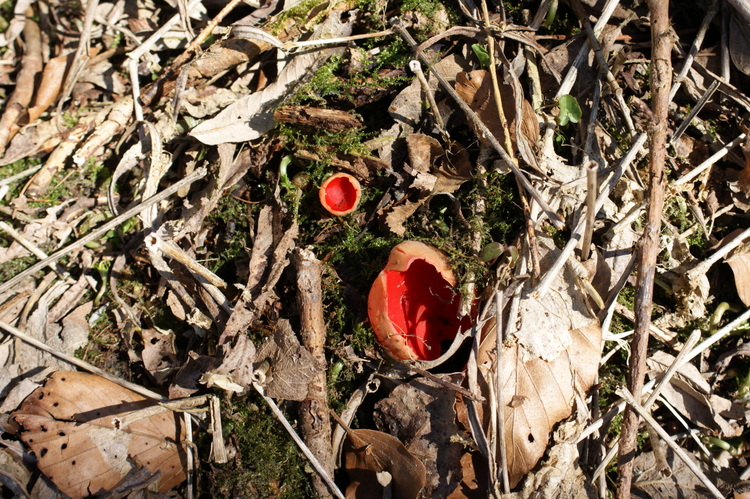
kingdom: Fungi
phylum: Ascomycota
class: Pezizomycetes
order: Pezizales
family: Sarcoscyphaceae
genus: Sarcoscypha
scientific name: Sarcoscypha austriaca
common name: krølhåret pragtbæger
